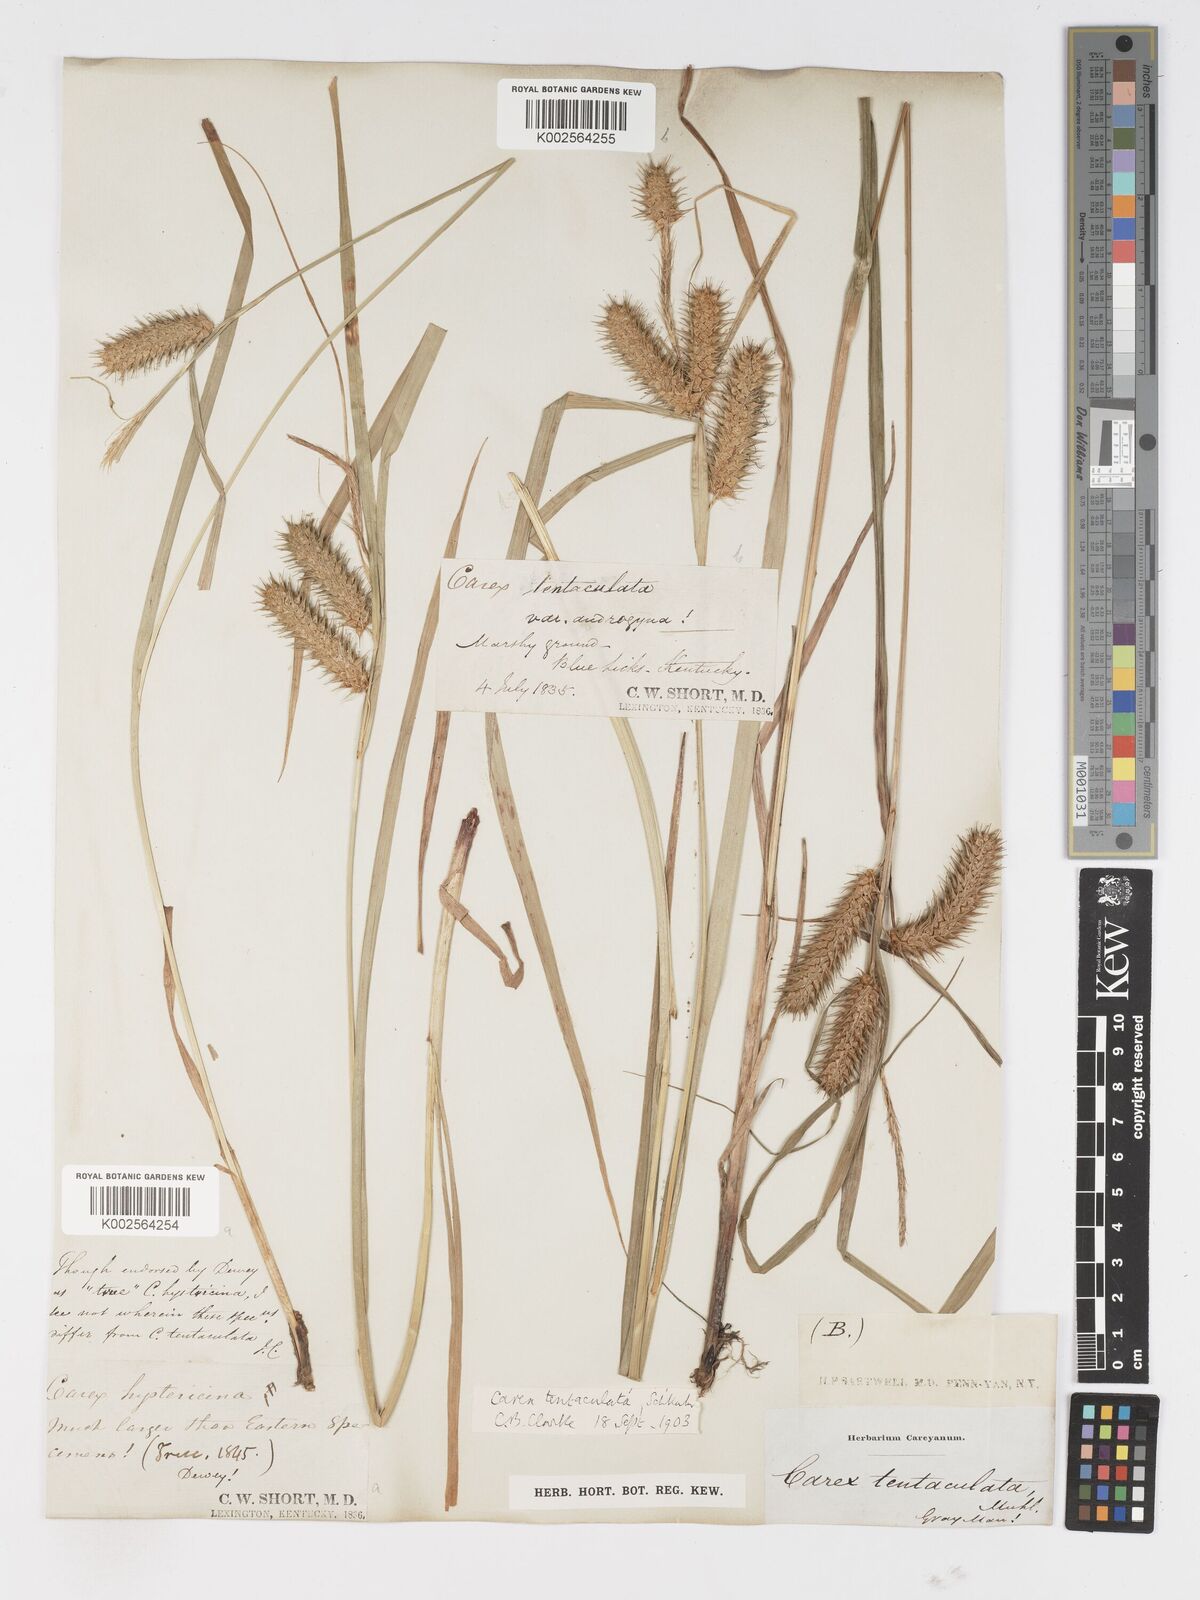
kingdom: Plantae
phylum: Tracheophyta
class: Liliopsida
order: Poales
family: Cyperaceae
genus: Carex
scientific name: Carex lurida
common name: Sallow sedge
